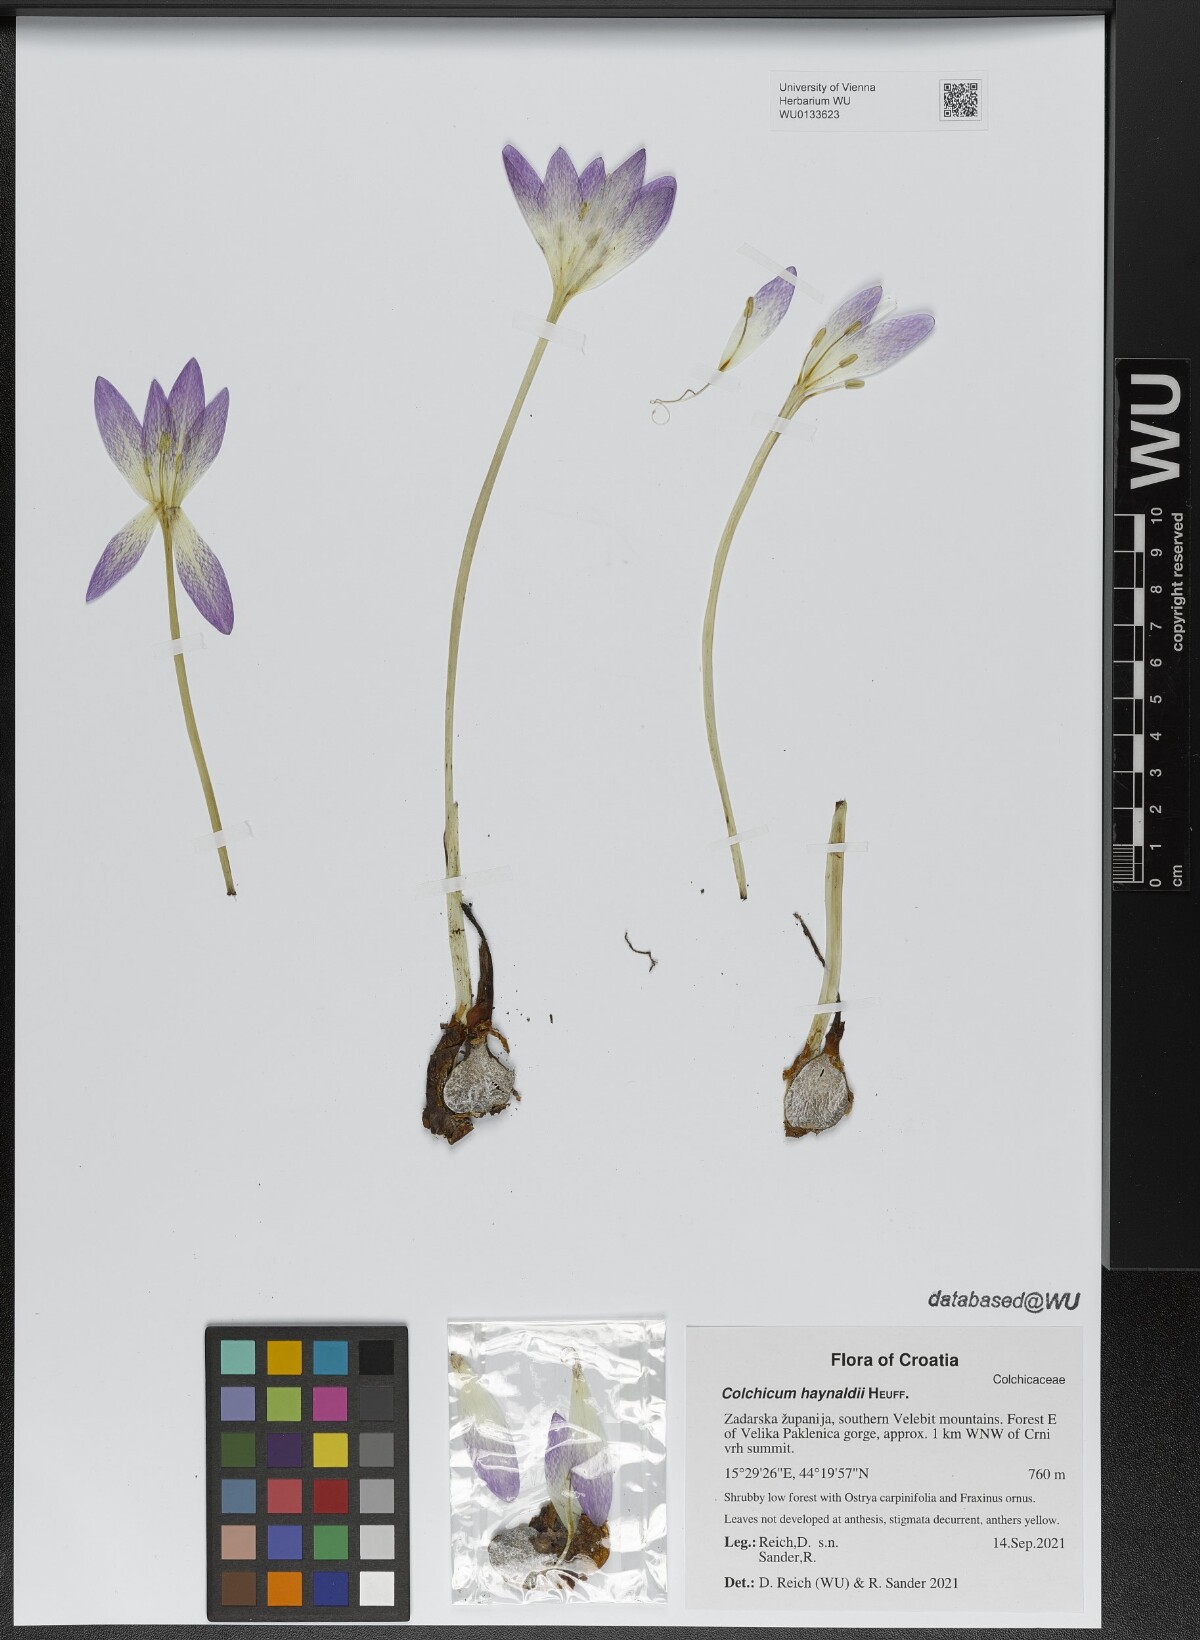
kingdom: Plantae
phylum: Tracheophyta
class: Liliopsida
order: Liliales
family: Colchicaceae
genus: Colchicum
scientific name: Colchicum haynaldii
